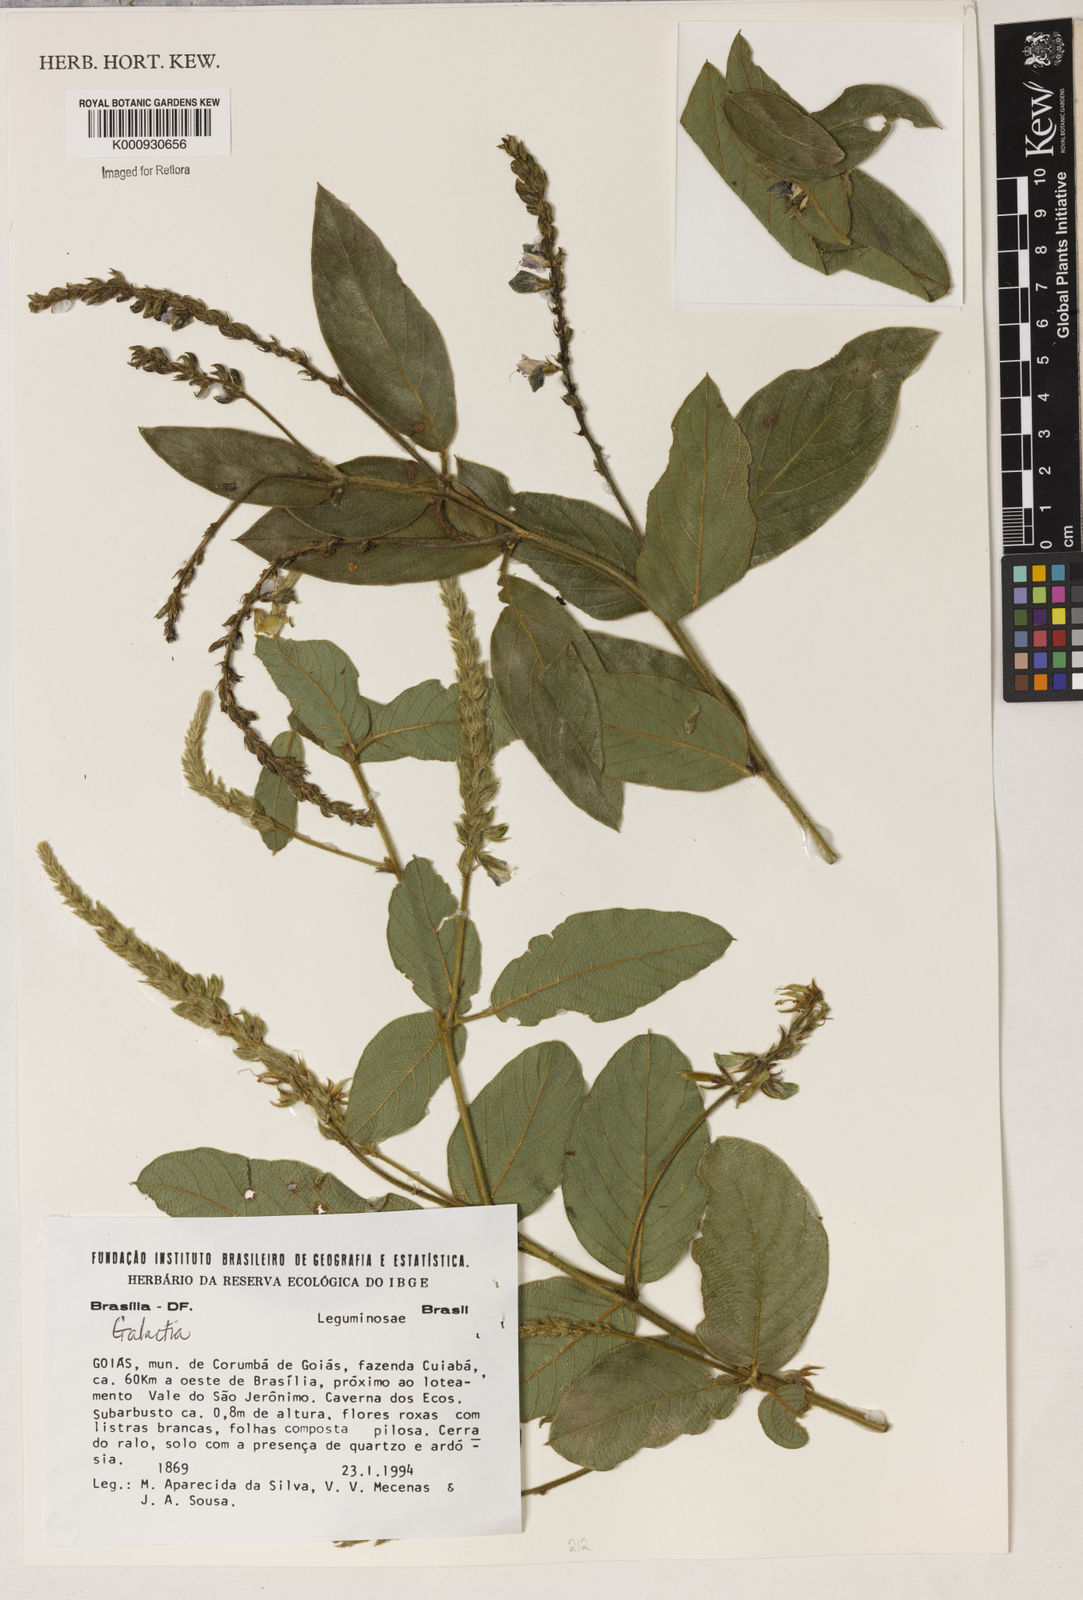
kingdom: Plantae
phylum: Tracheophyta
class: Magnoliopsida
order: Fabales
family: Fabaceae
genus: Galactia
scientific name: Galactia
